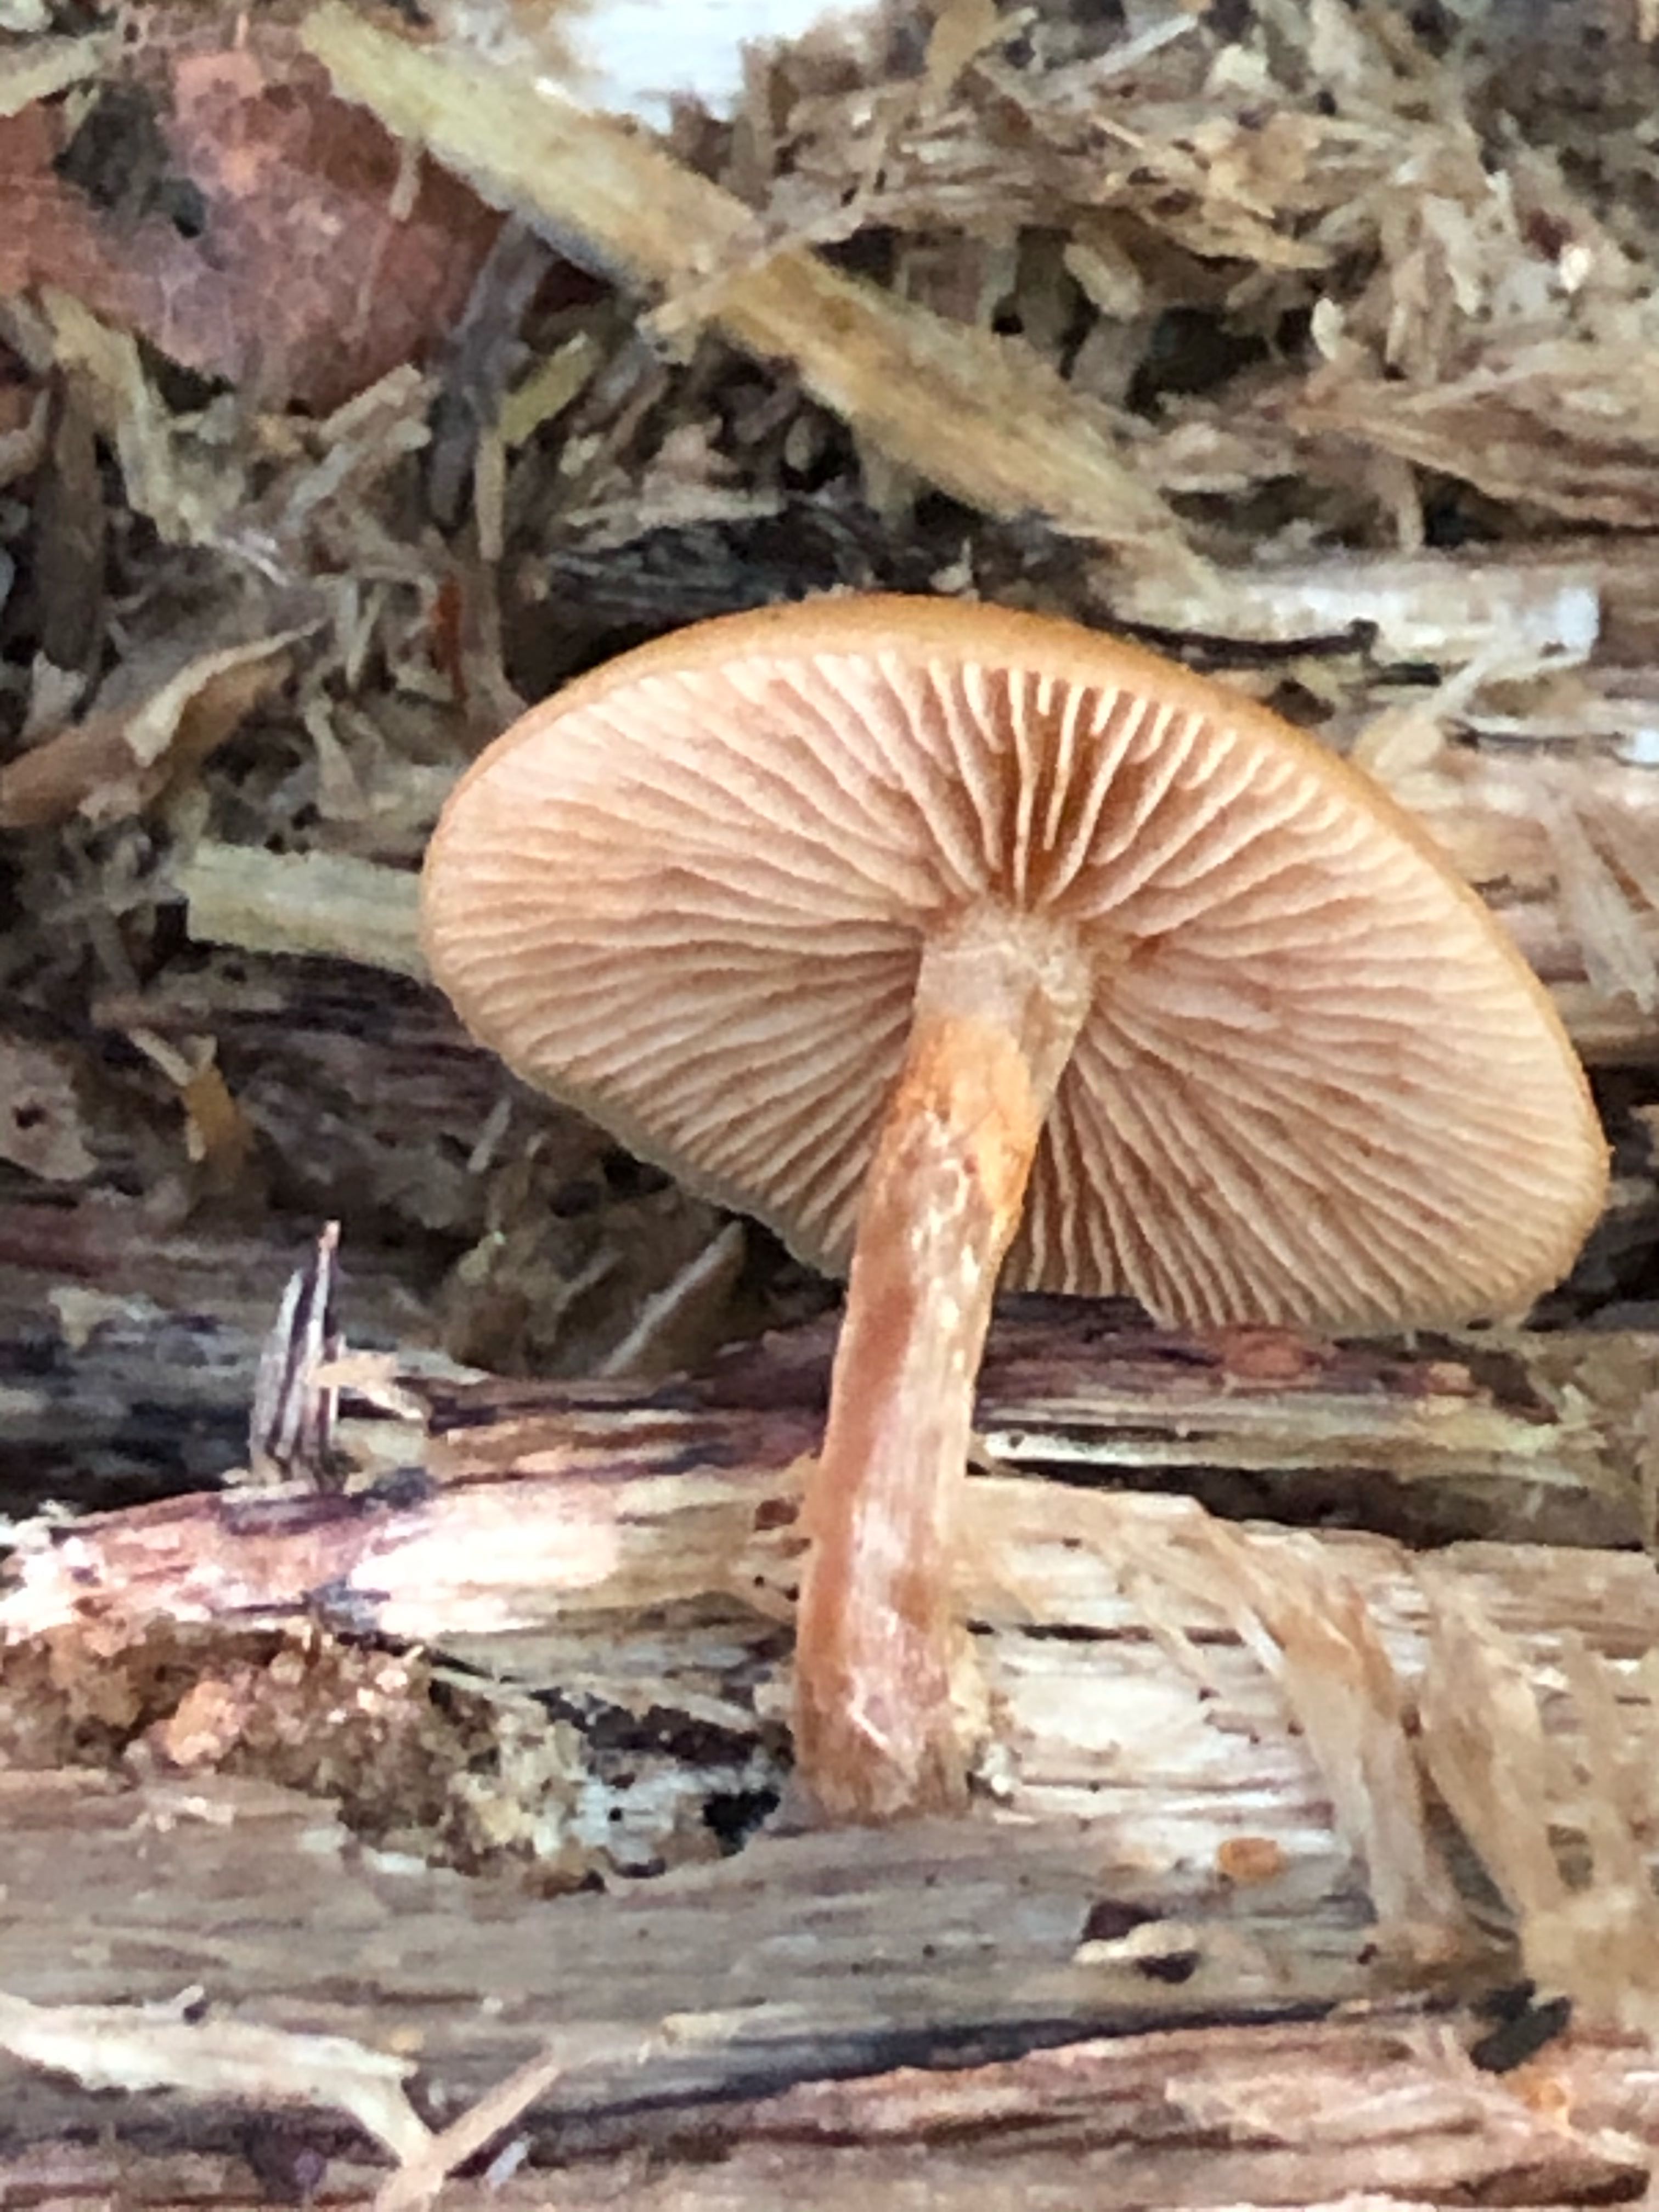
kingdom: Fungi
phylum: Basidiomycota
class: Agaricomycetes
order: Agaricales
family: Hymenogastraceae
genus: Galerina
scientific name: Galerina marginata
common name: randbæltet hjelmhat
